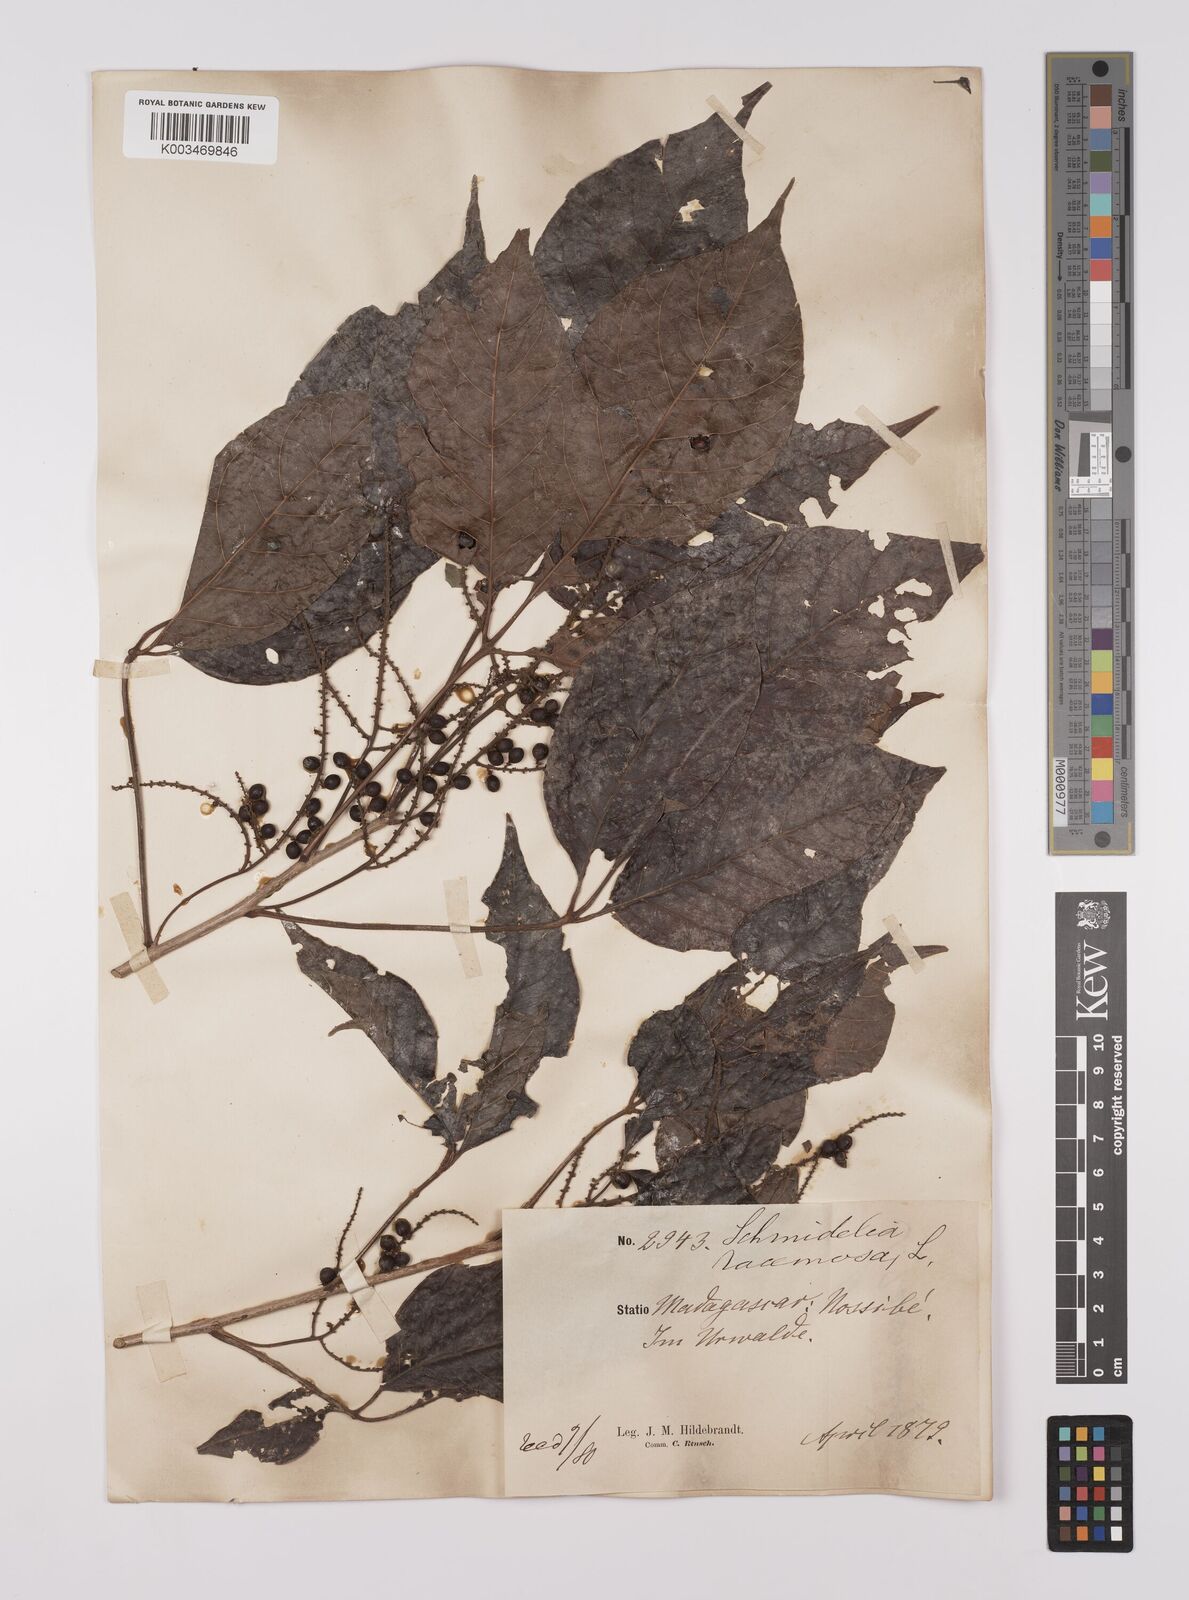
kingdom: Plantae
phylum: Tracheophyta
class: Magnoliopsida
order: Sapindales
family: Sapindaceae
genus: Allophylus
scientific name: Allophylus
